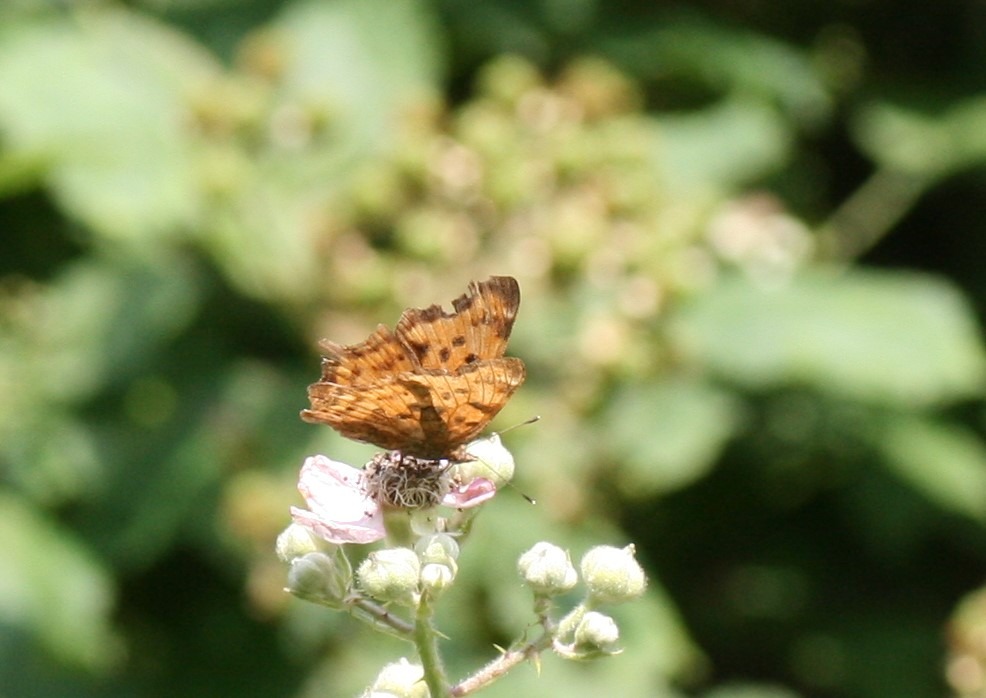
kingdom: Animalia
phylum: Arthropoda
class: Insecta
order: Lepidoptera
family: Nymphalidae
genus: Polygonia
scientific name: Polygonia c-album
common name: Det hvide C
